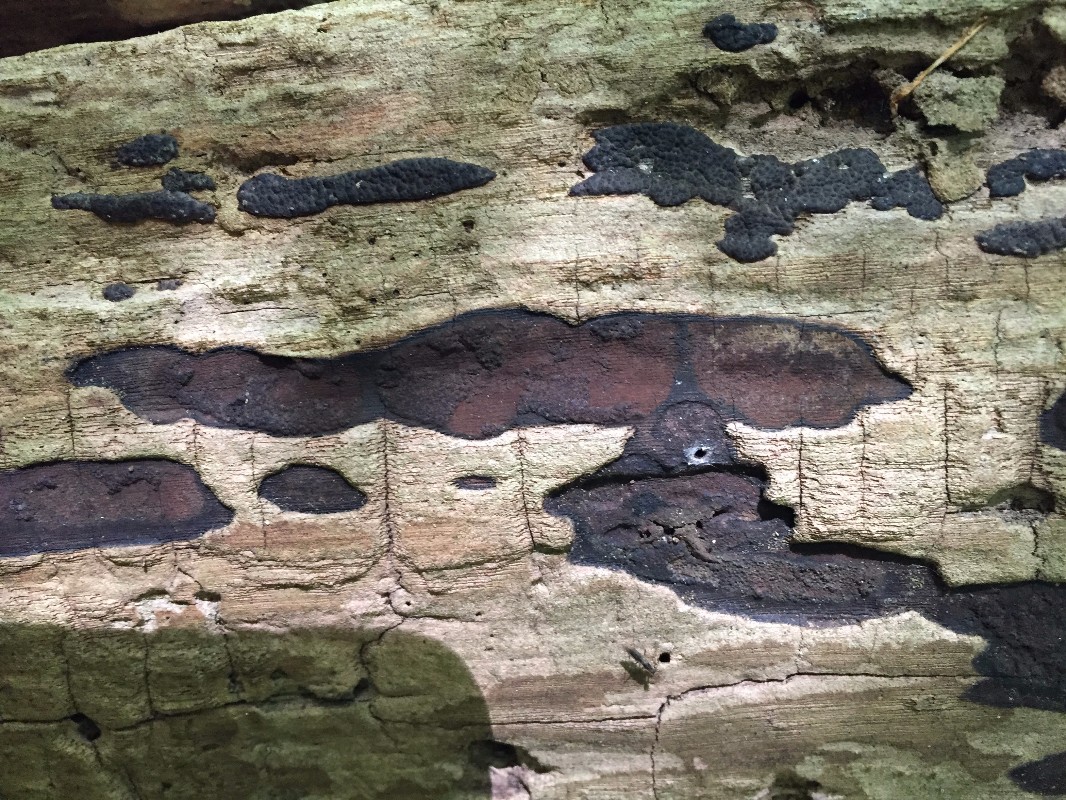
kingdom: Fungi
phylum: Ascomycota
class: Sordariomycetes
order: Xylariales
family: Hypoxylaceae
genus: Hypoxylon
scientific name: Hypoxylon petriniae
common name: nedsænket kulbær
